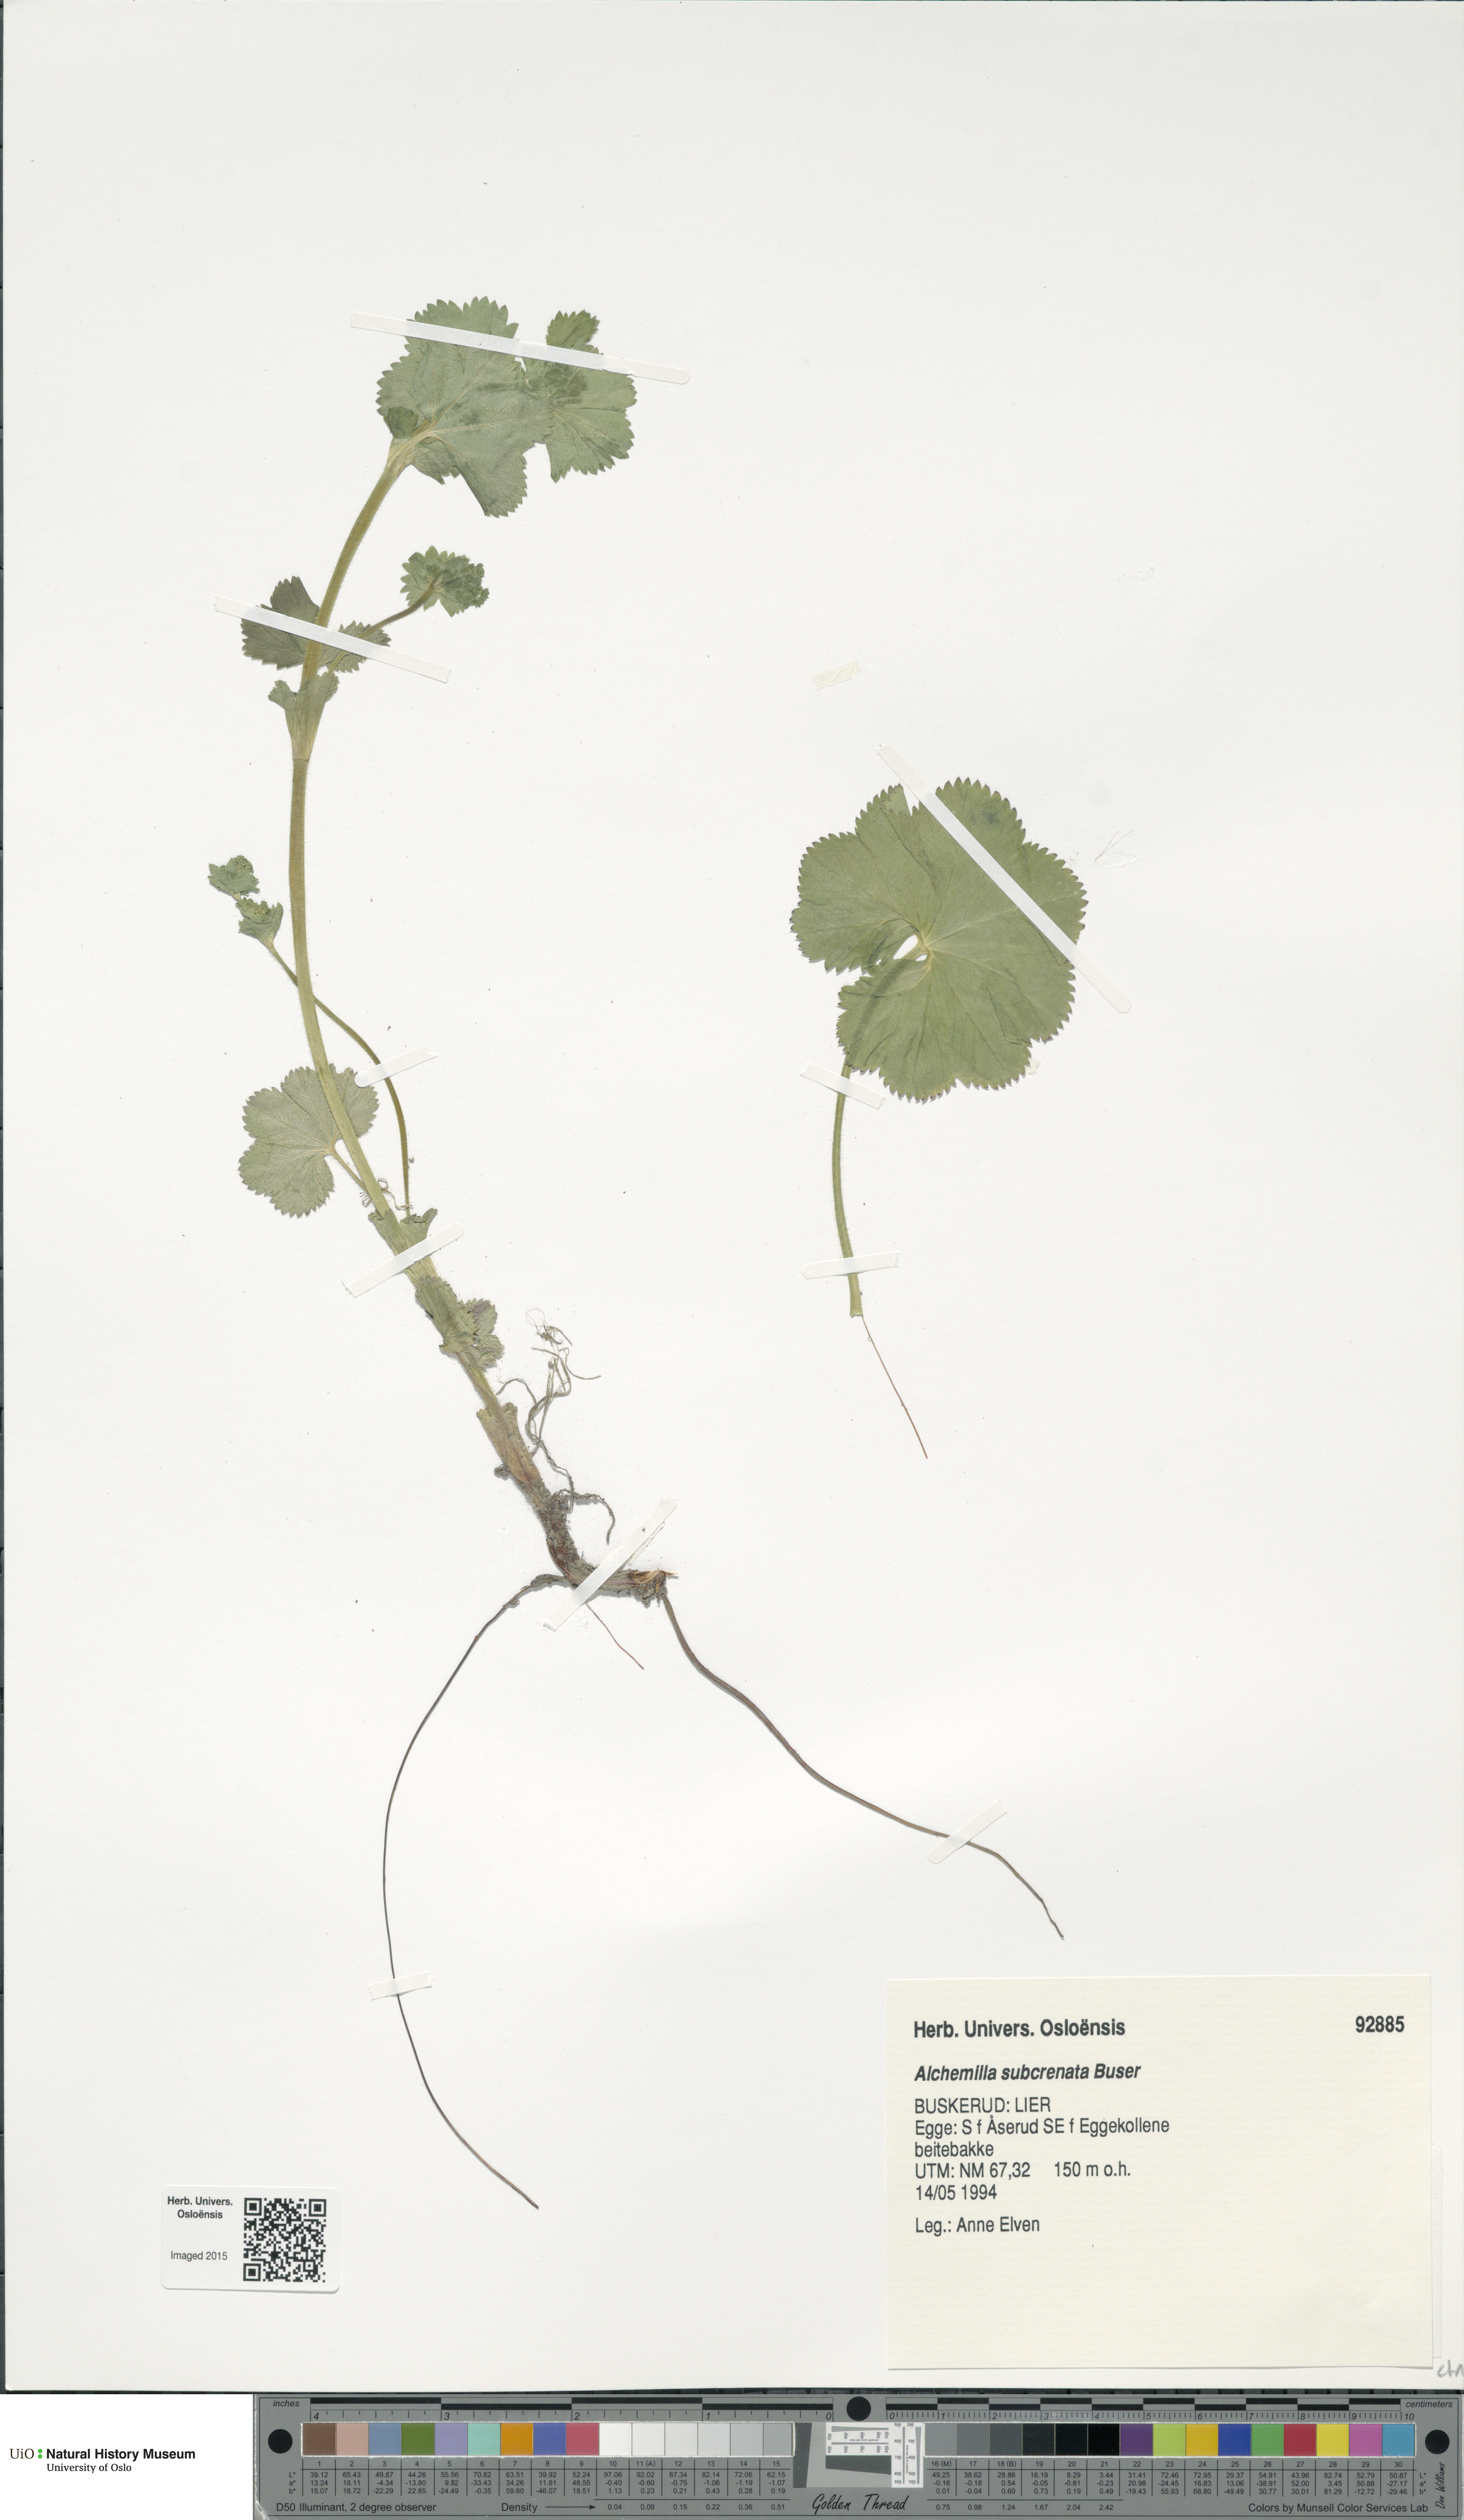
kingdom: Plantae
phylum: Tracheophyta
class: Magnoliopsida
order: Rosales
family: Rosaceae
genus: Alchemilla
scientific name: Alchemilla subcrenata
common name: Broadtooth lady's mantle
